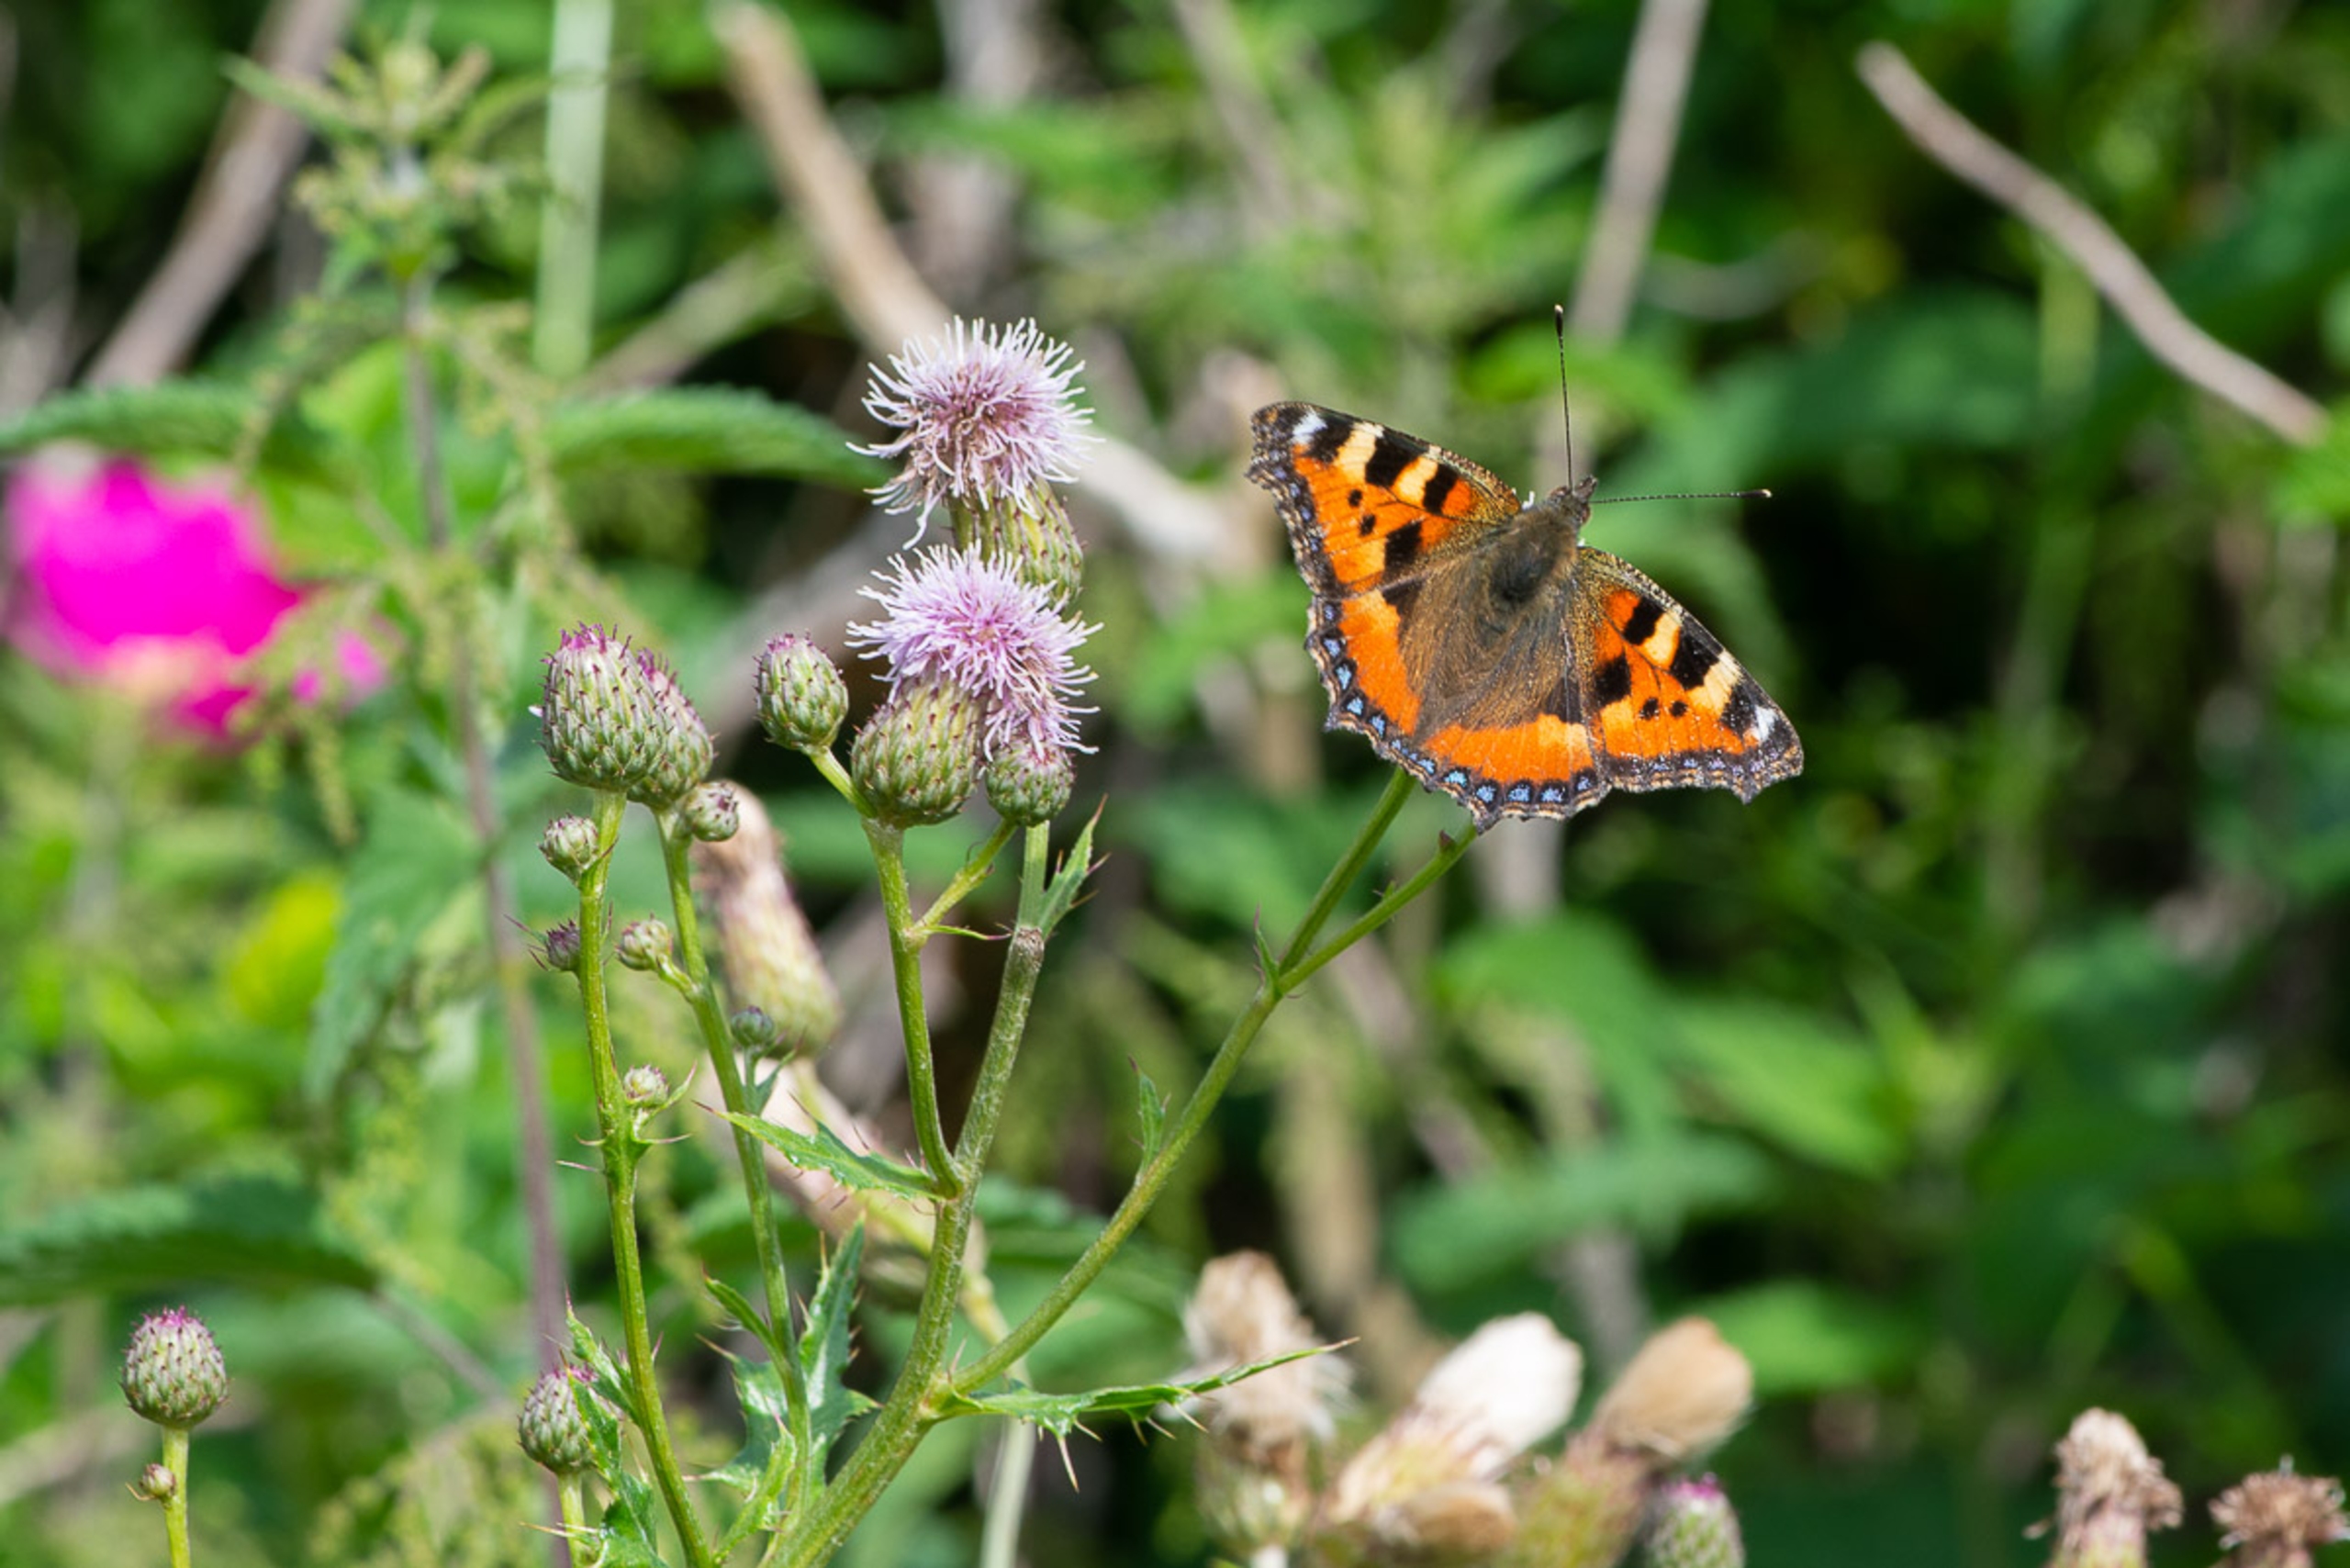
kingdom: Animalia
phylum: Arthropoda
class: Insecta
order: Lepidoptera
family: Nymphalidae
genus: Aglais
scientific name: Aglais urticae
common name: Nældens takvinge
